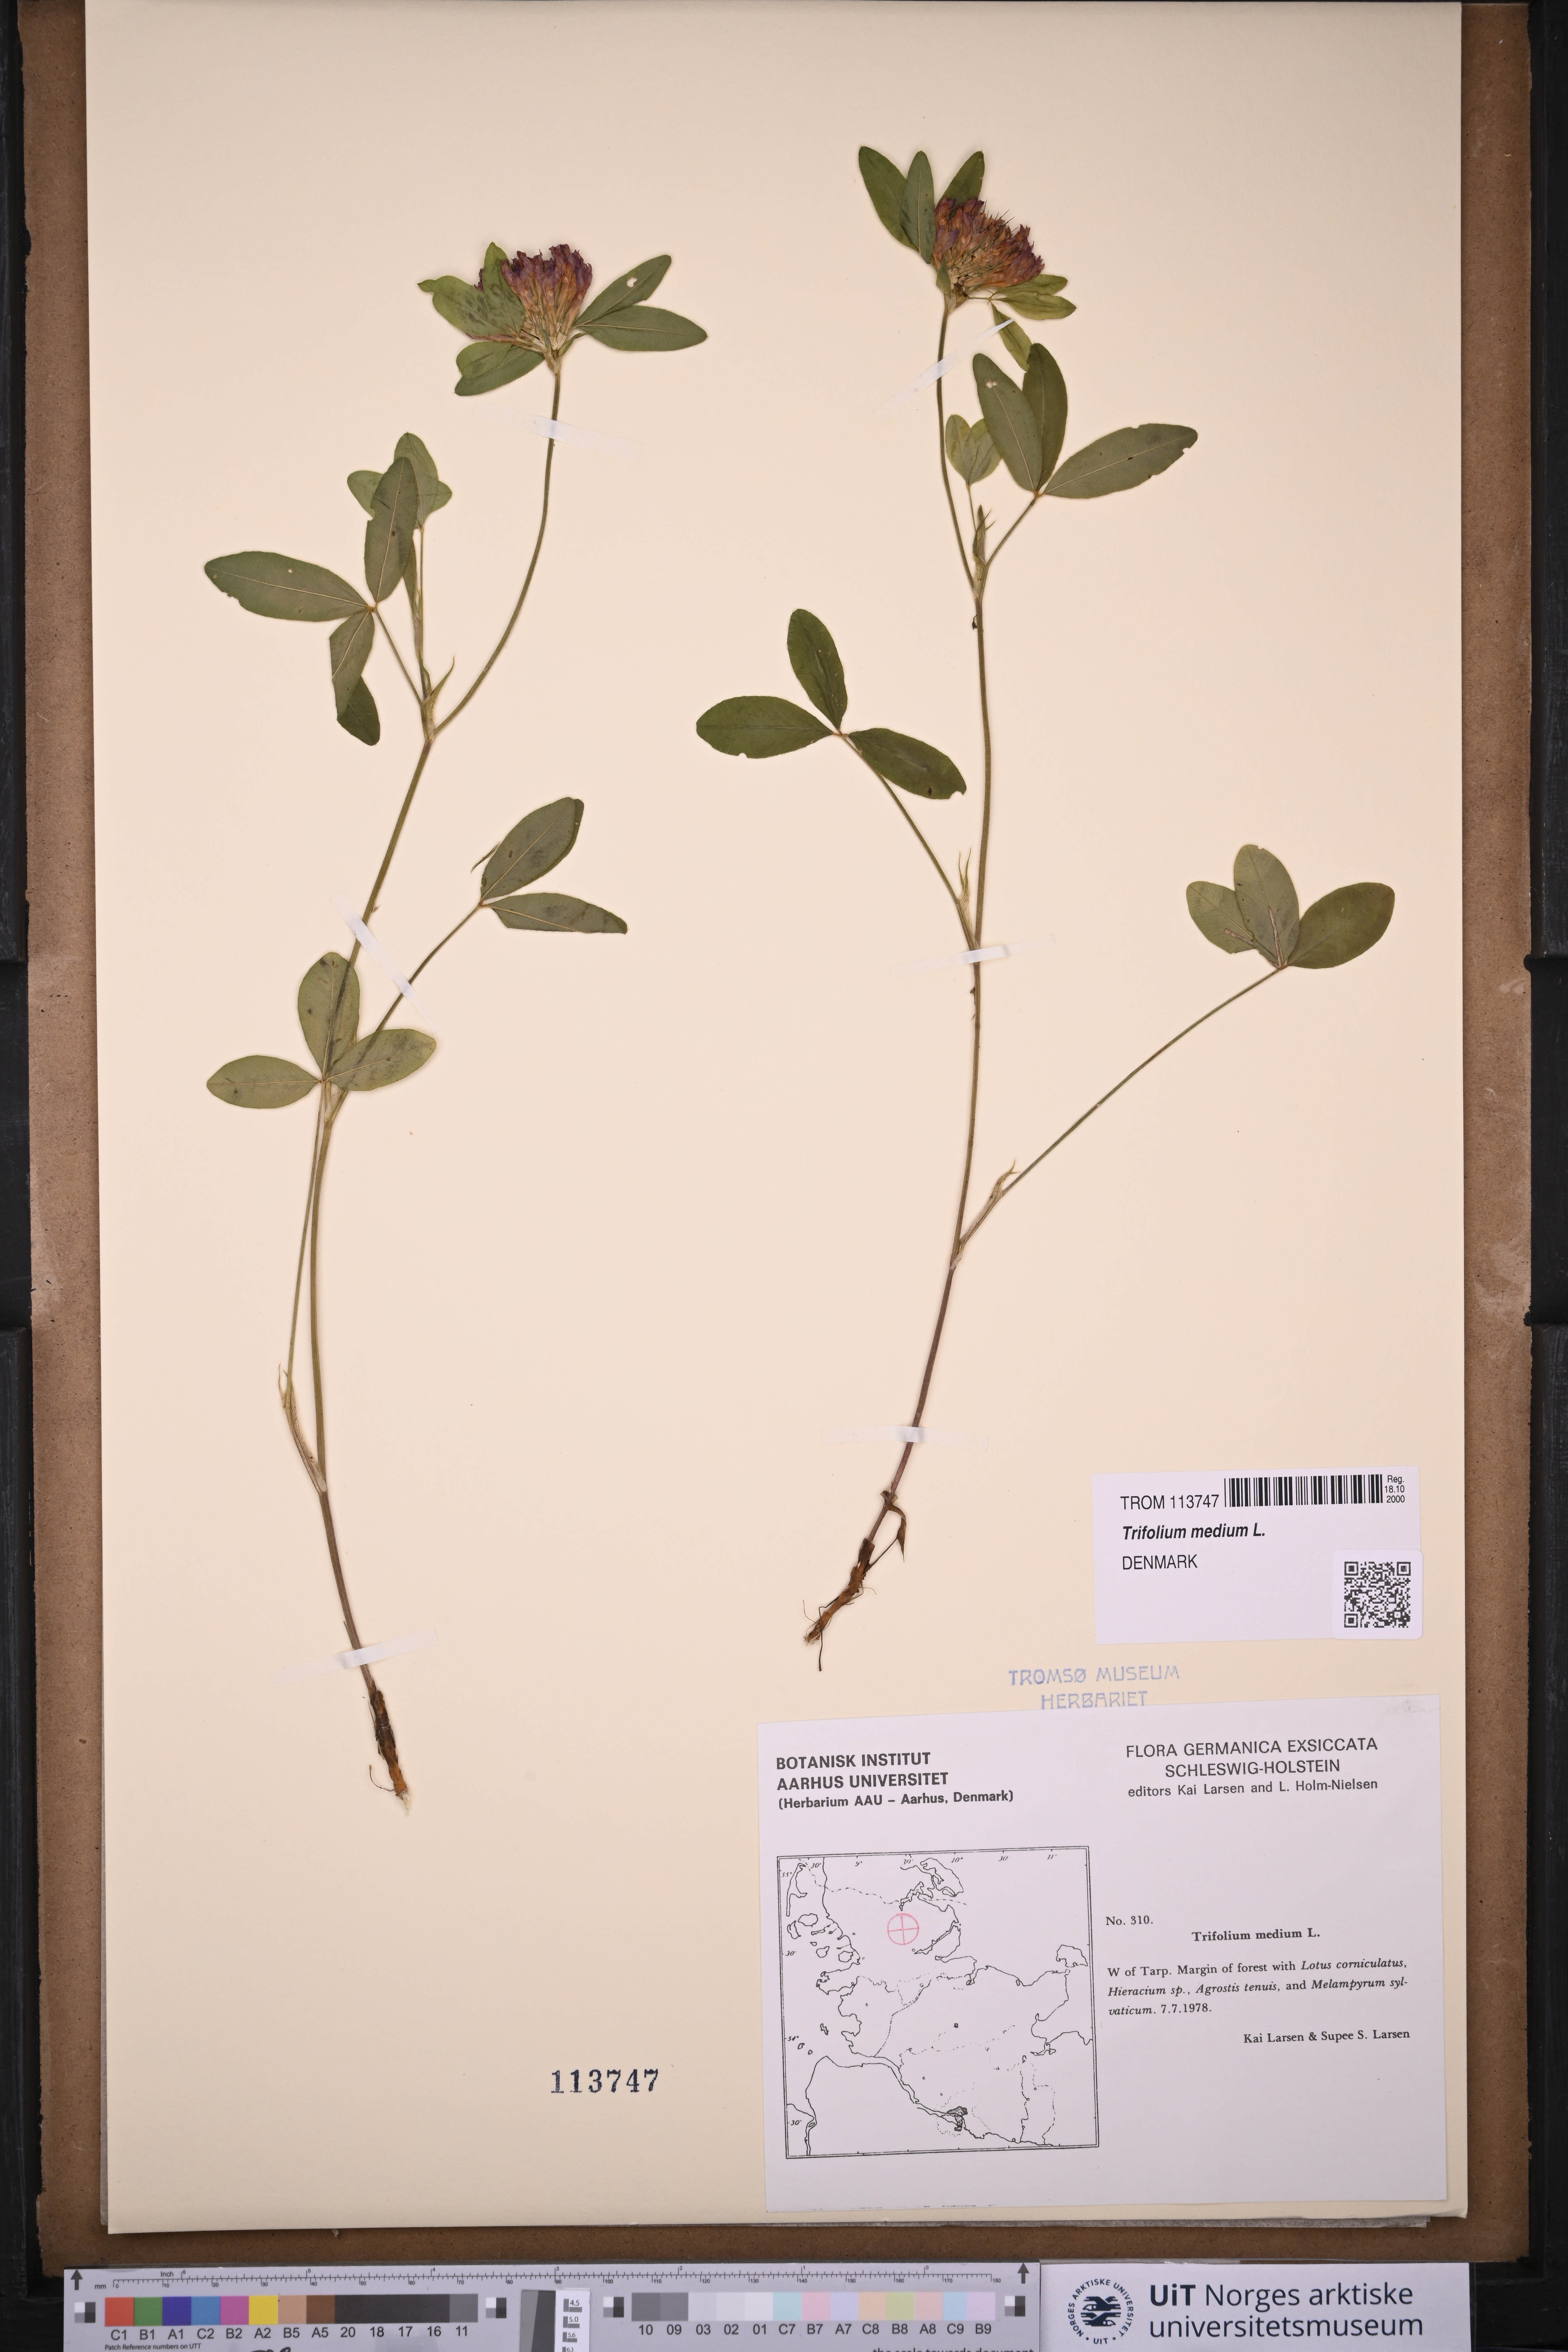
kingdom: Plantae
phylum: Tracheophyta
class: Magnoliopsida
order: Fabales
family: Fabaceae
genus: Trifolium
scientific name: Trifolium medium
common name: Zigzag clover
